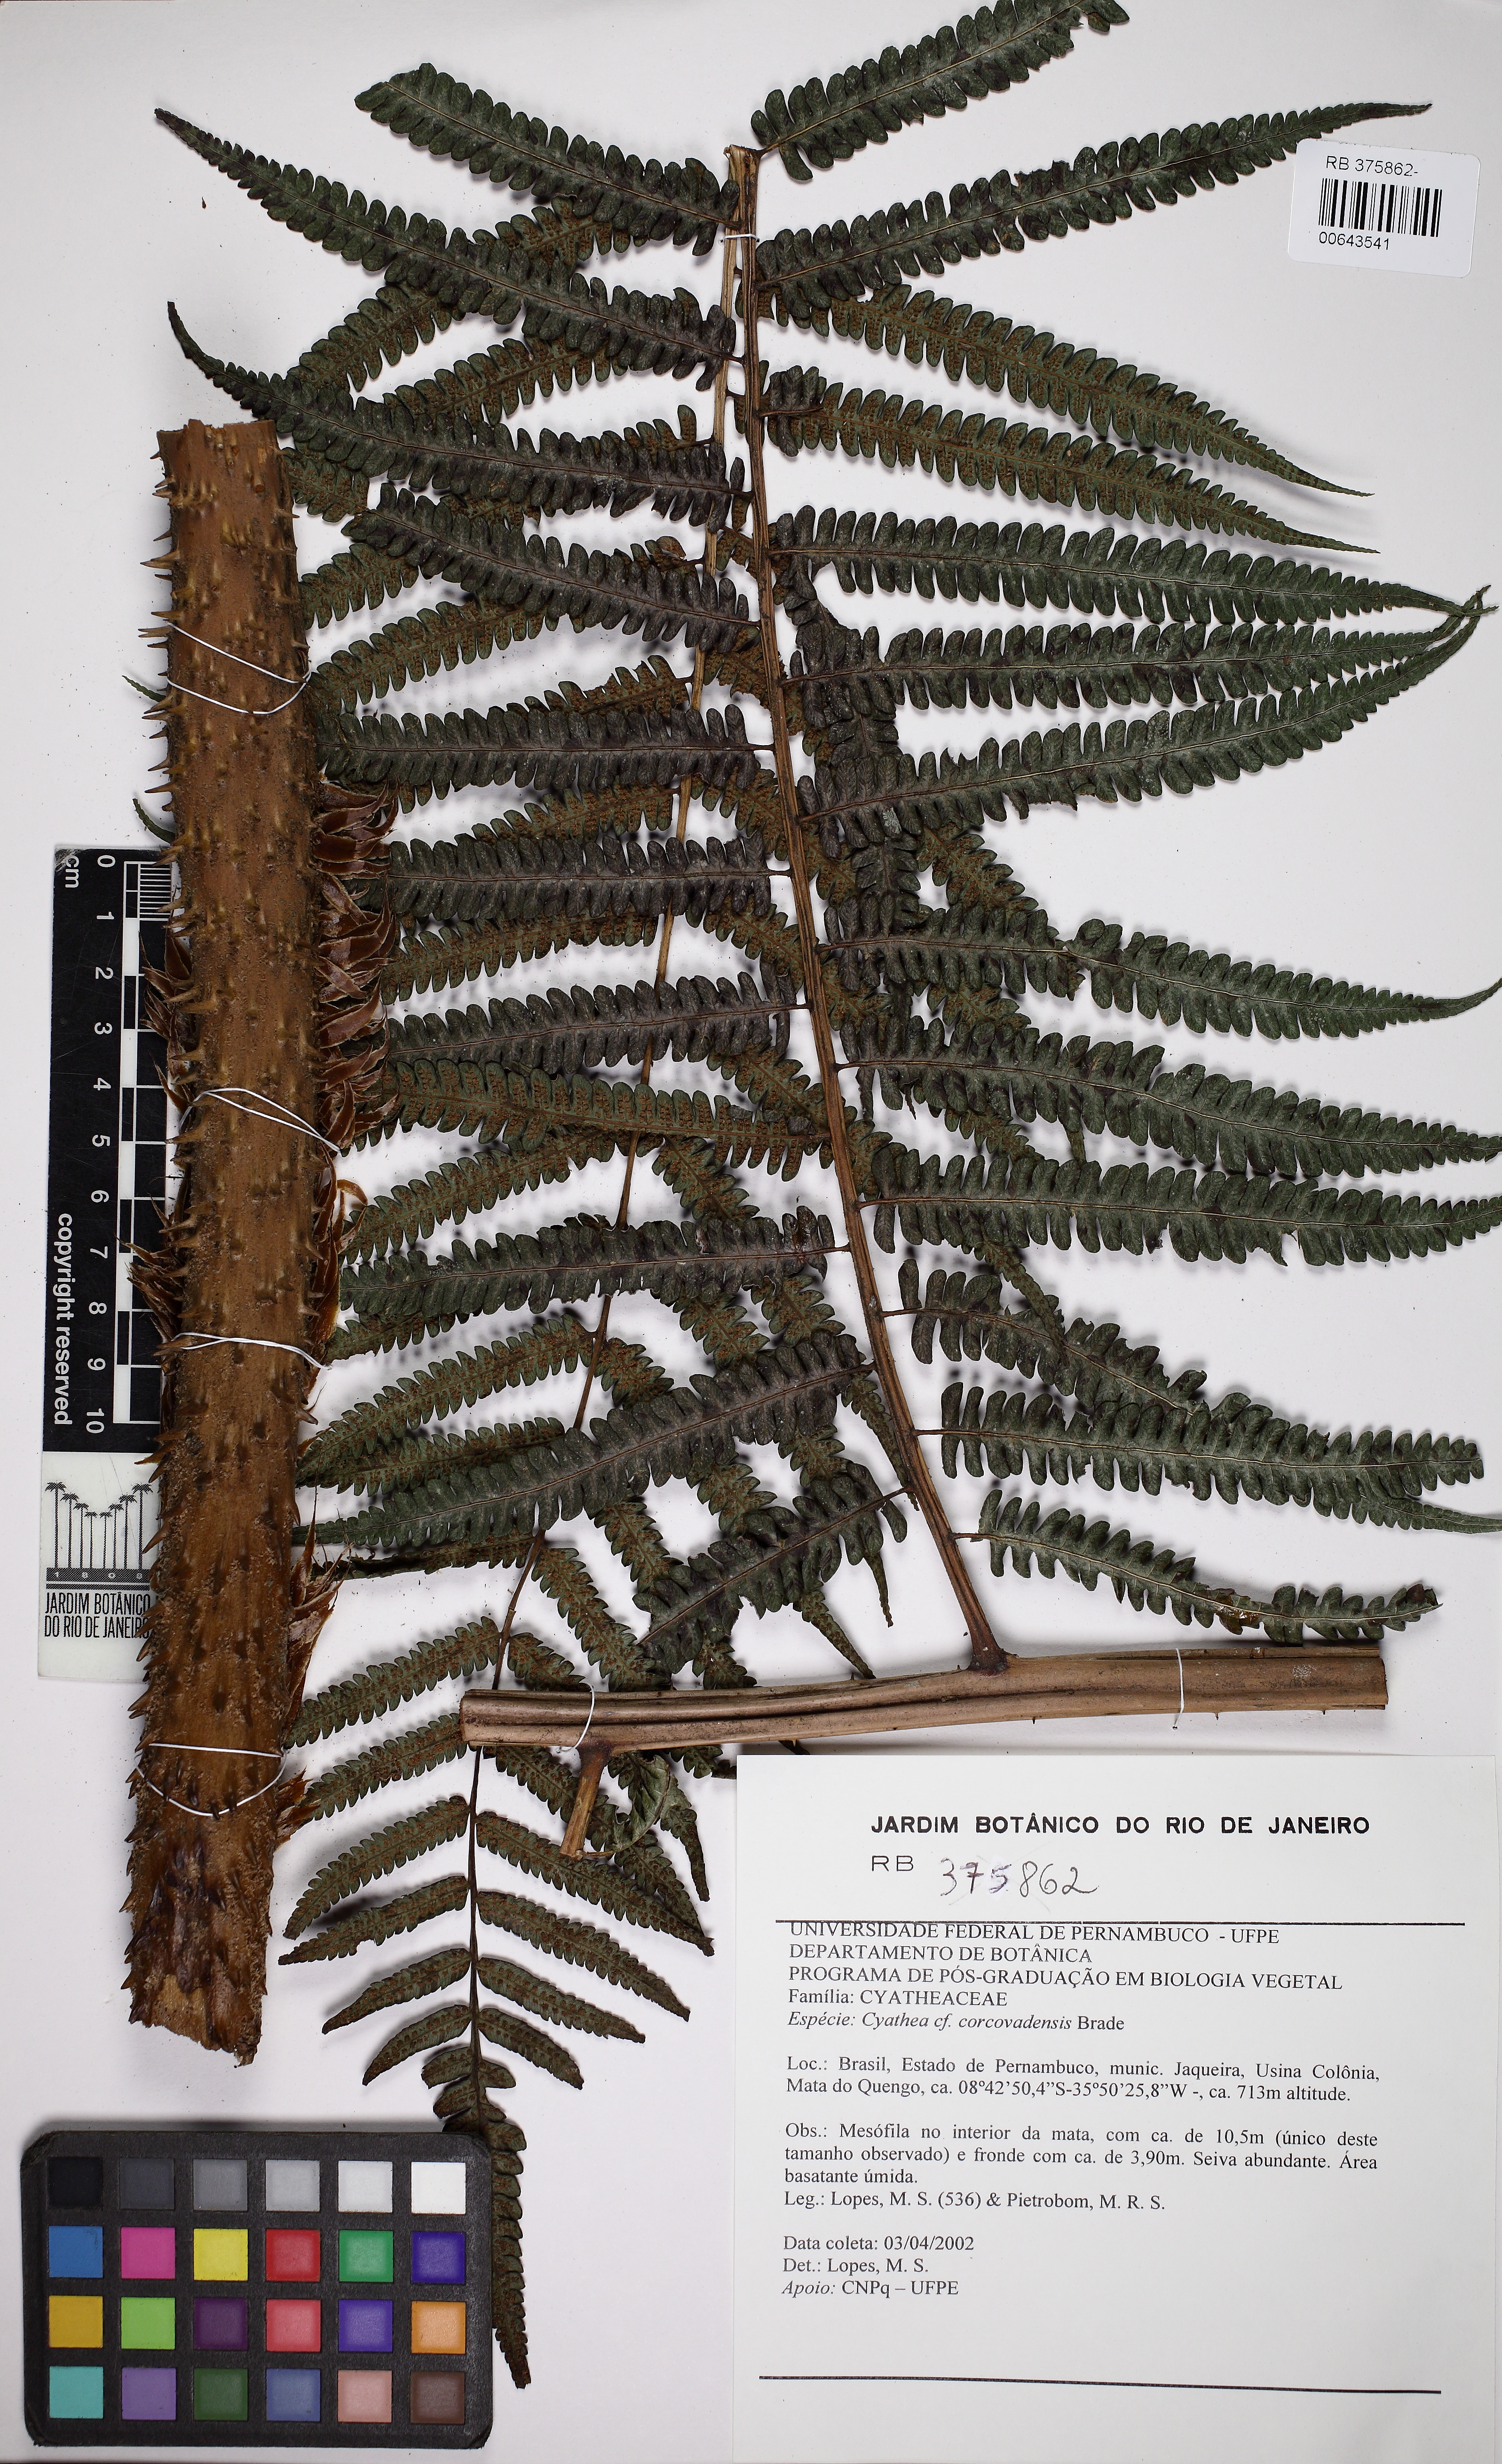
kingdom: Plantae
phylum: Tracheophyta
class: Polypodiopsida
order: Cyatheales
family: Cyatheaceae
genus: Cyathea
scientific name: Cyathea corcovadensis
